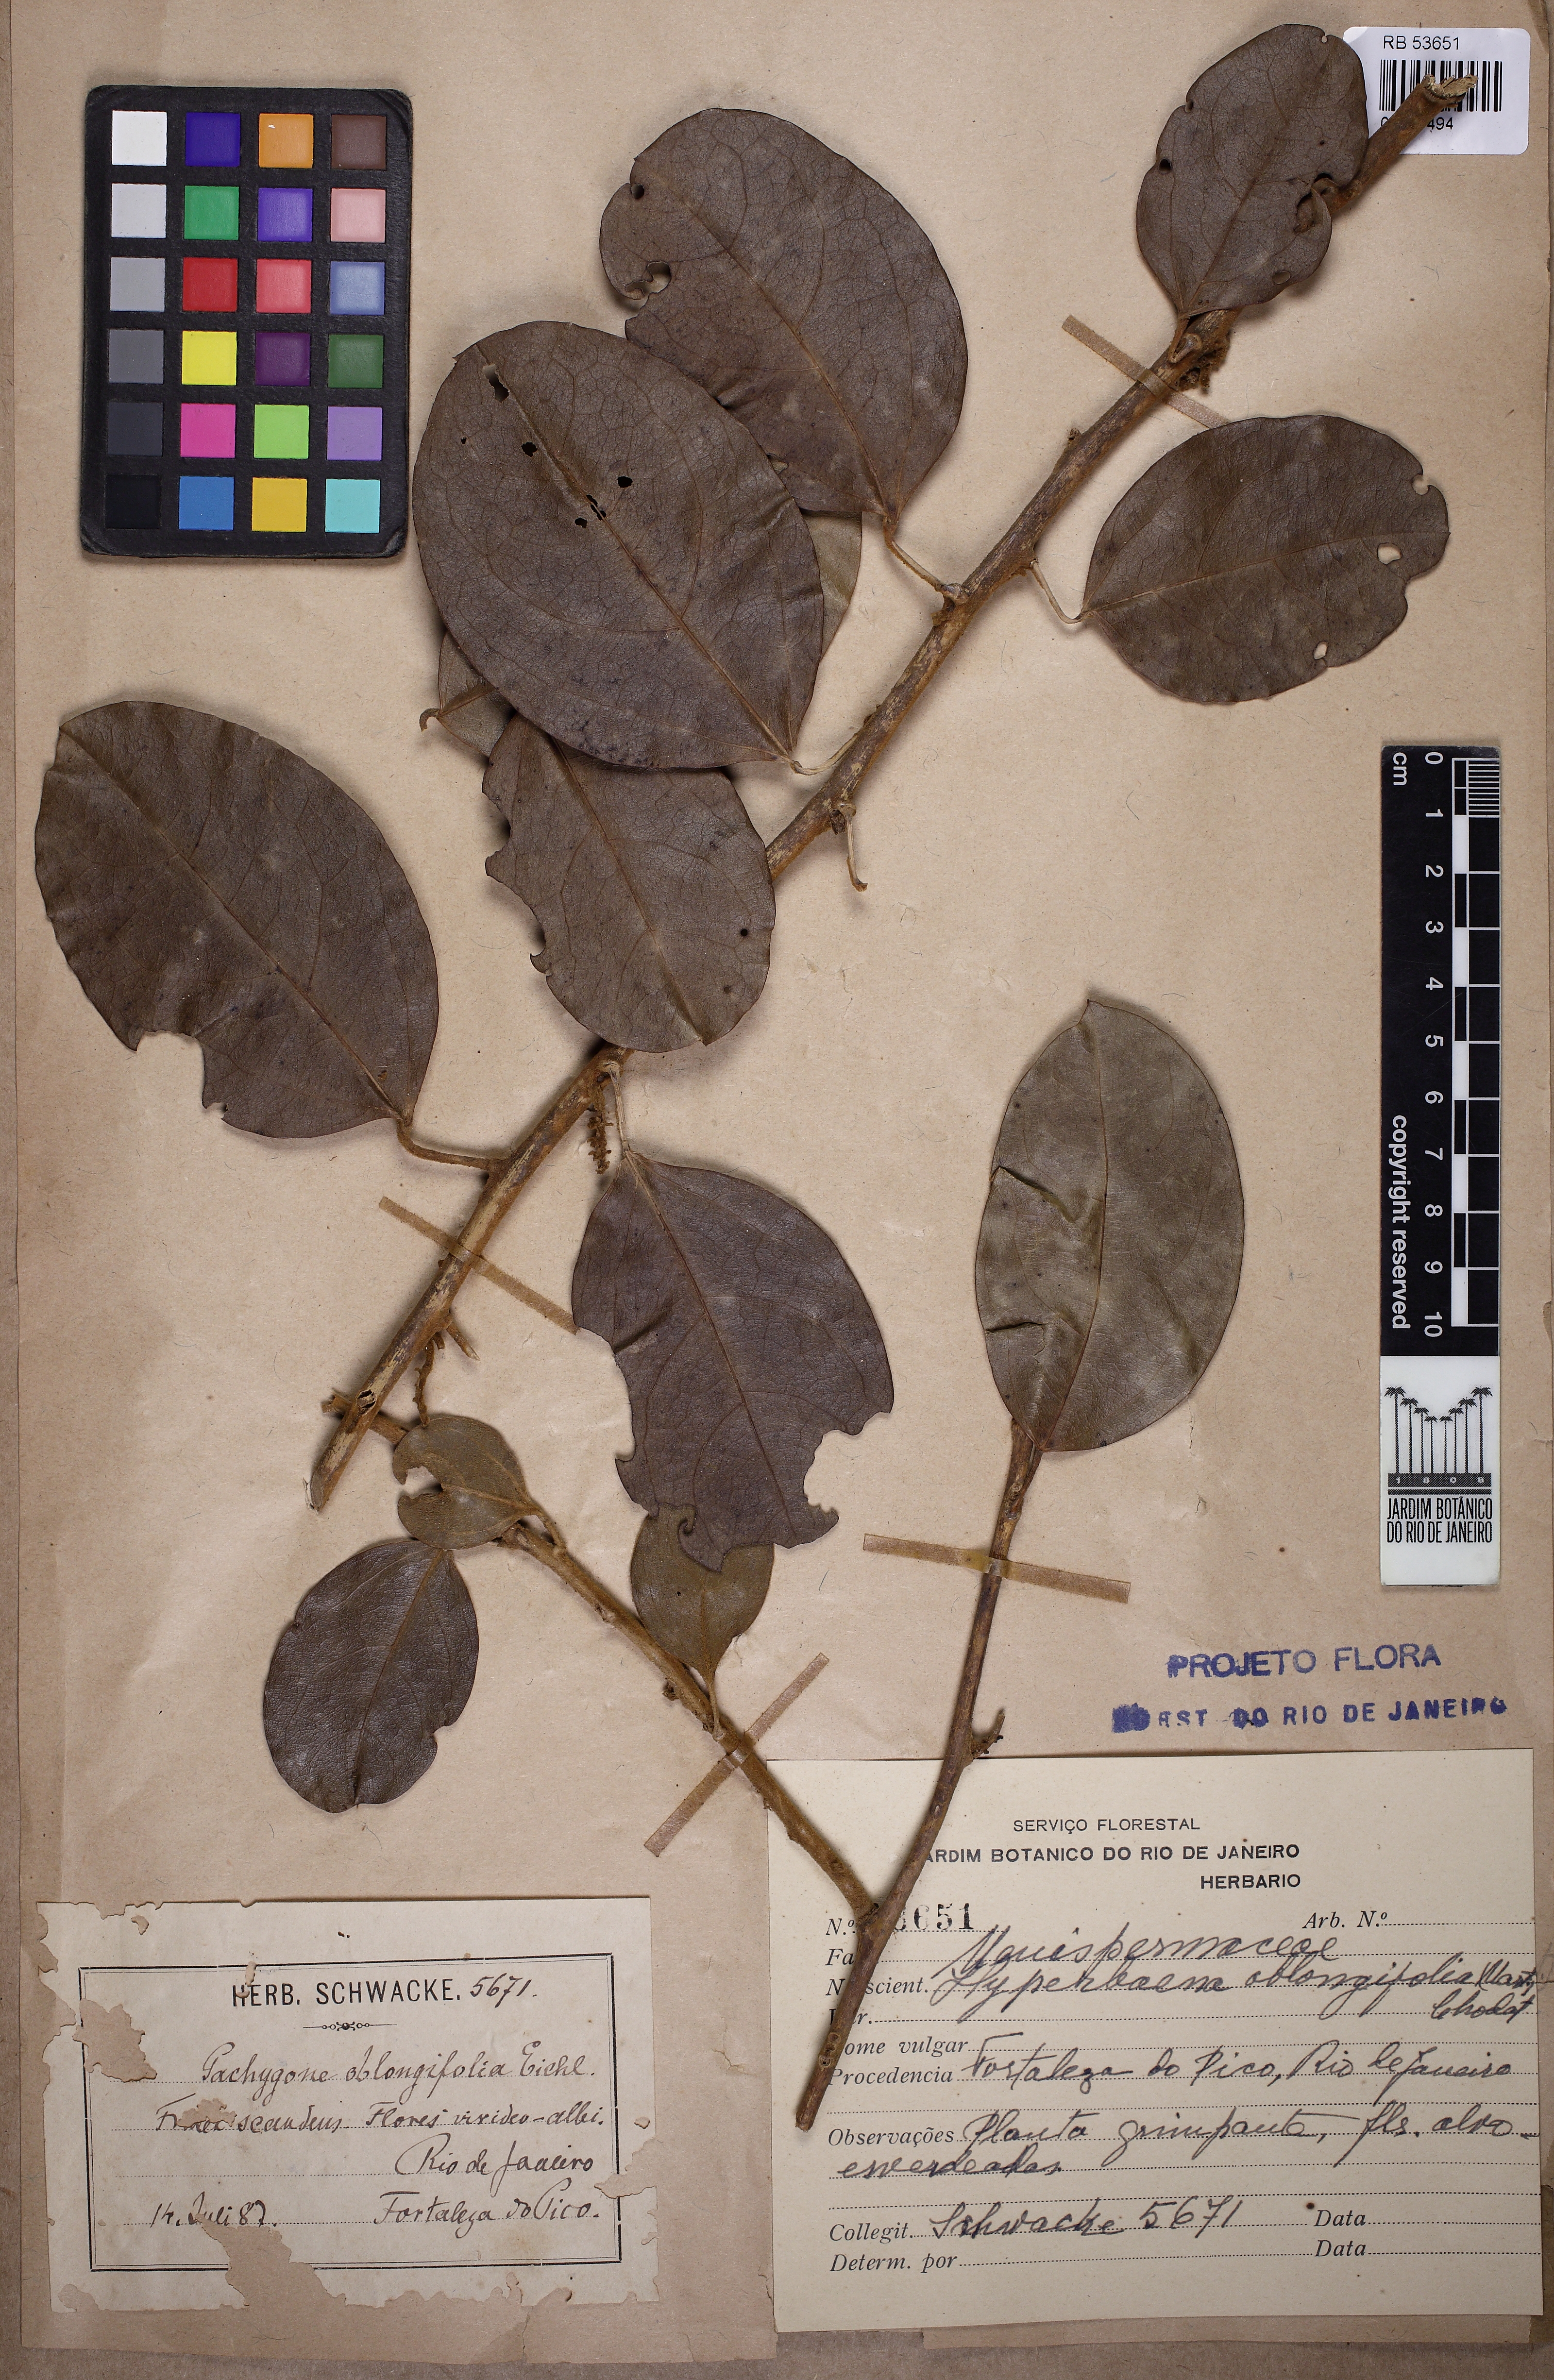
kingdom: Plantae
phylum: Tracheophyta
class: Magnoliopsida
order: Ranunculales
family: Menispermaceae
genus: Hyperbaena
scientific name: Hyperbaena oblongifolia
